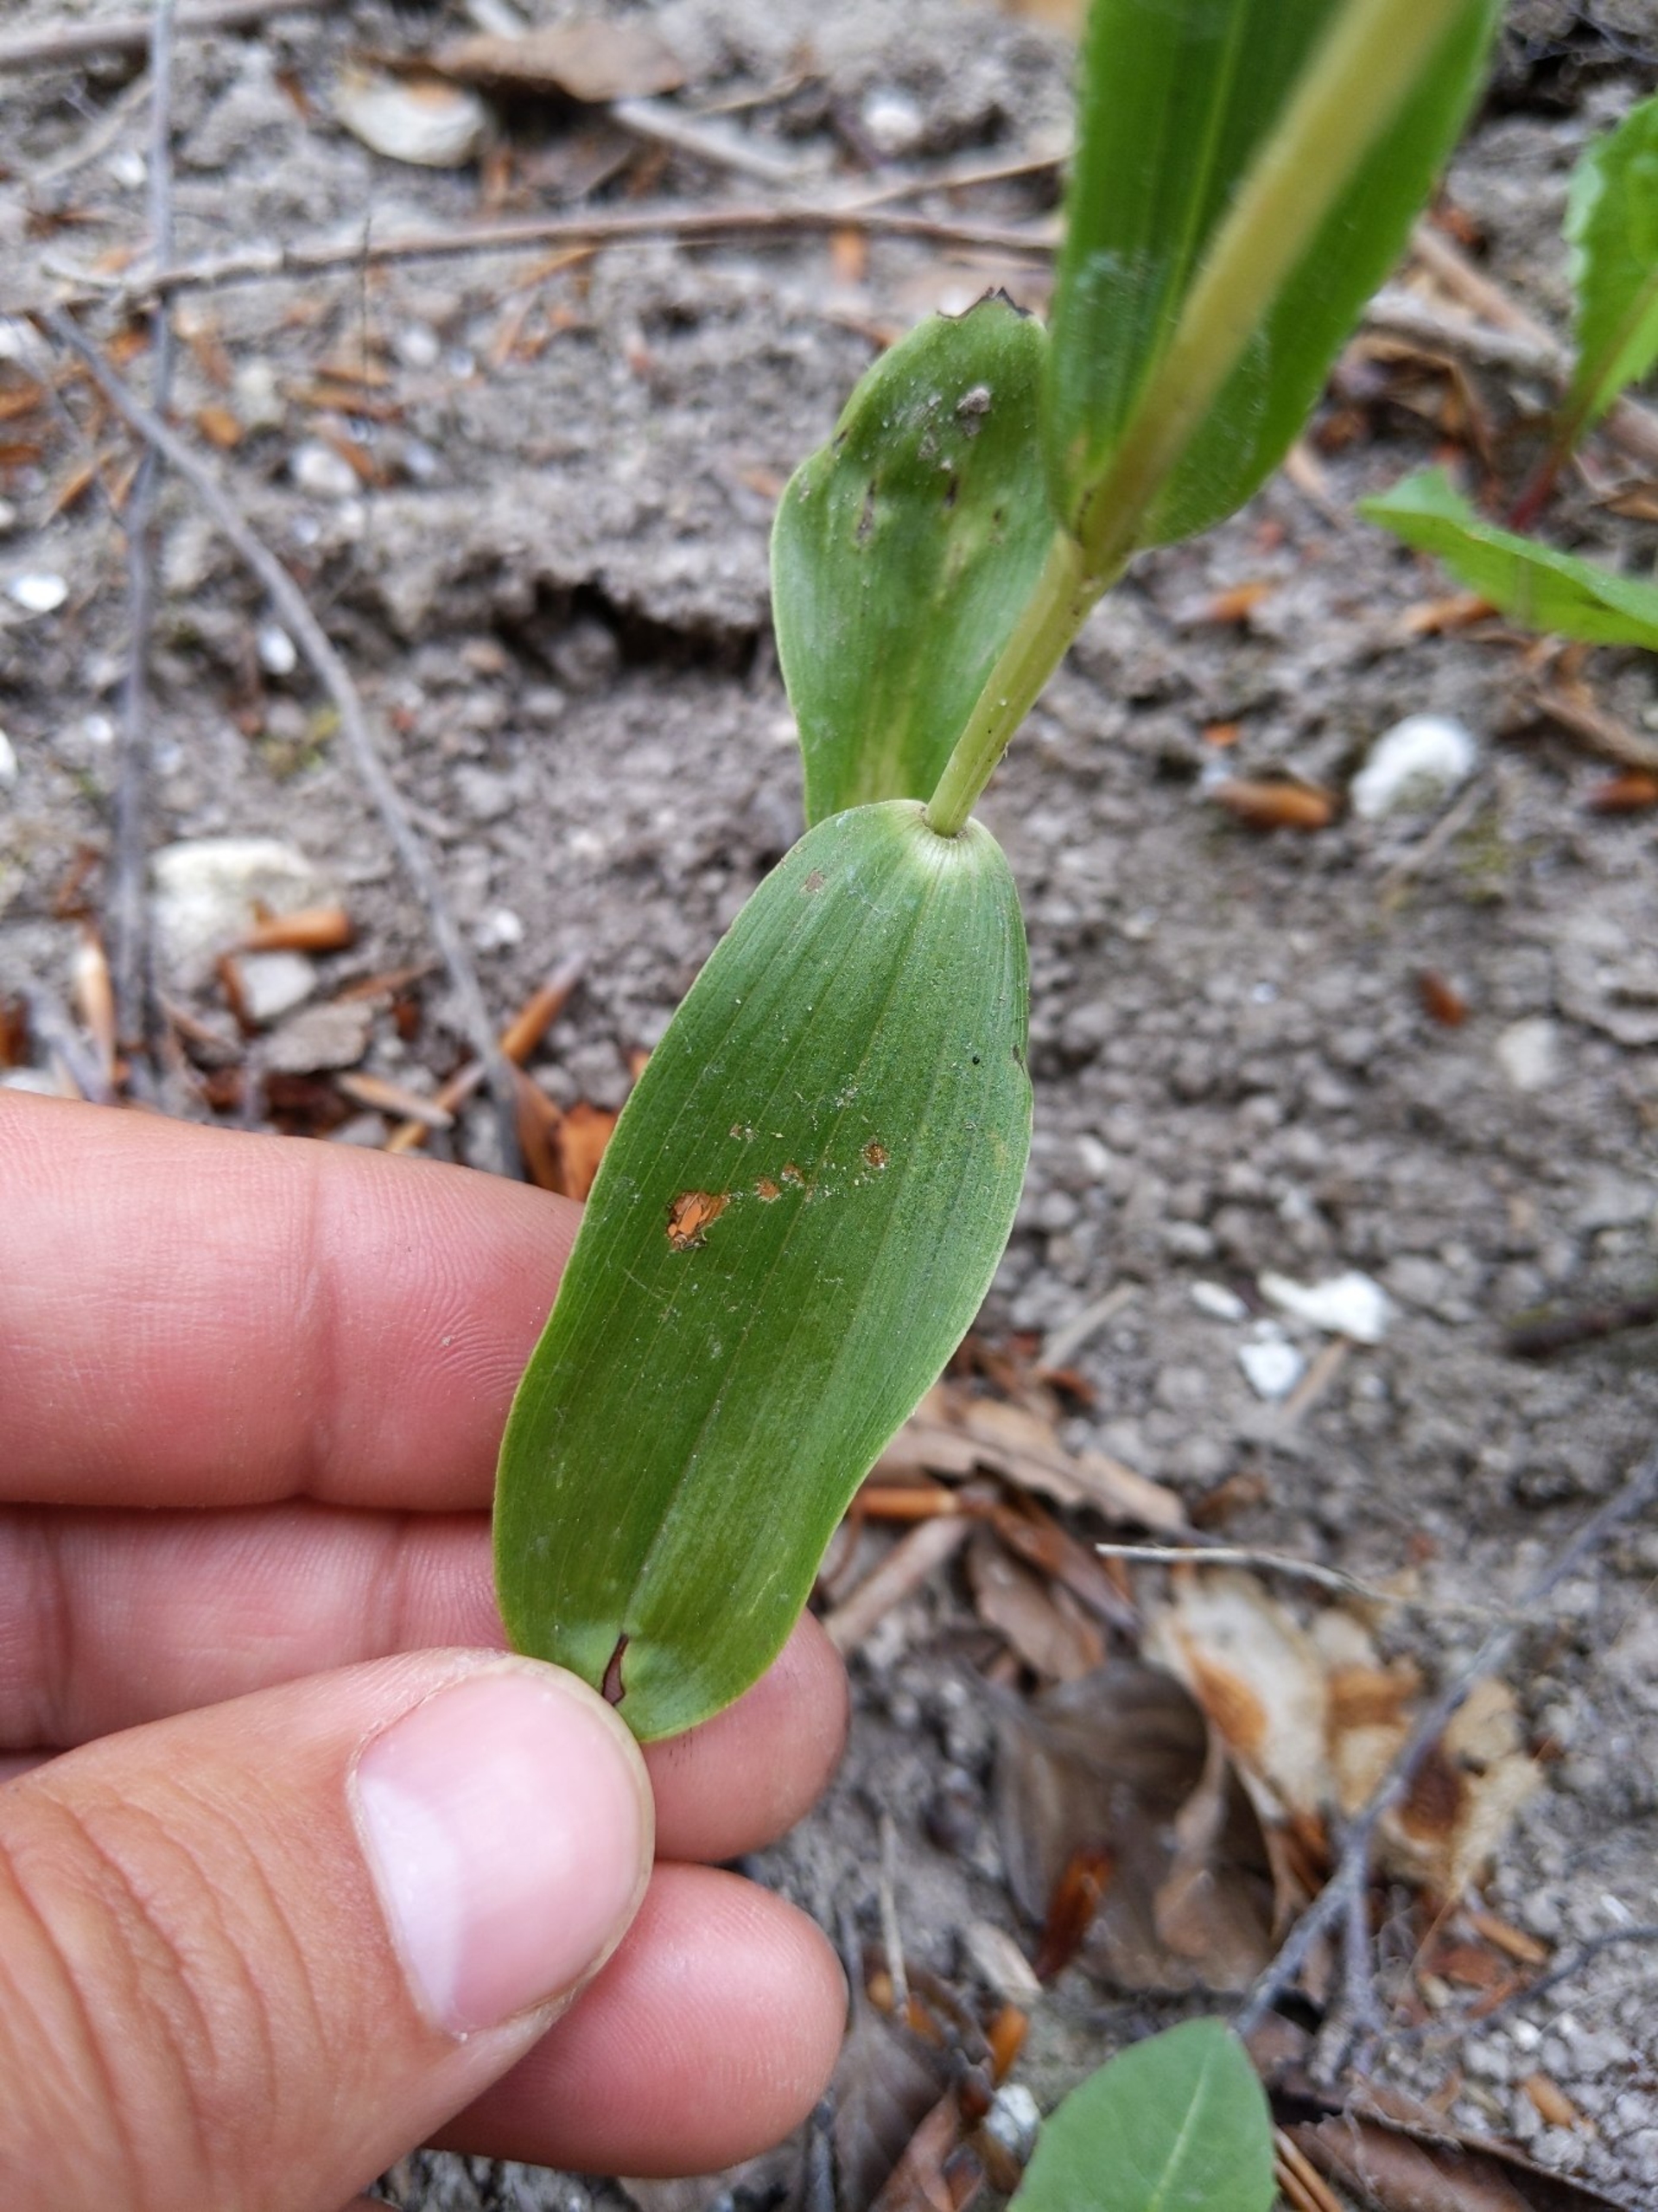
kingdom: Plantae
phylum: Tracheophyta
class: Liliopsida
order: Asparagales
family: Orchidaceae
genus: Cephalanthera
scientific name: Cephalanthera damasonium
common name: Hvidgul skovlilje
